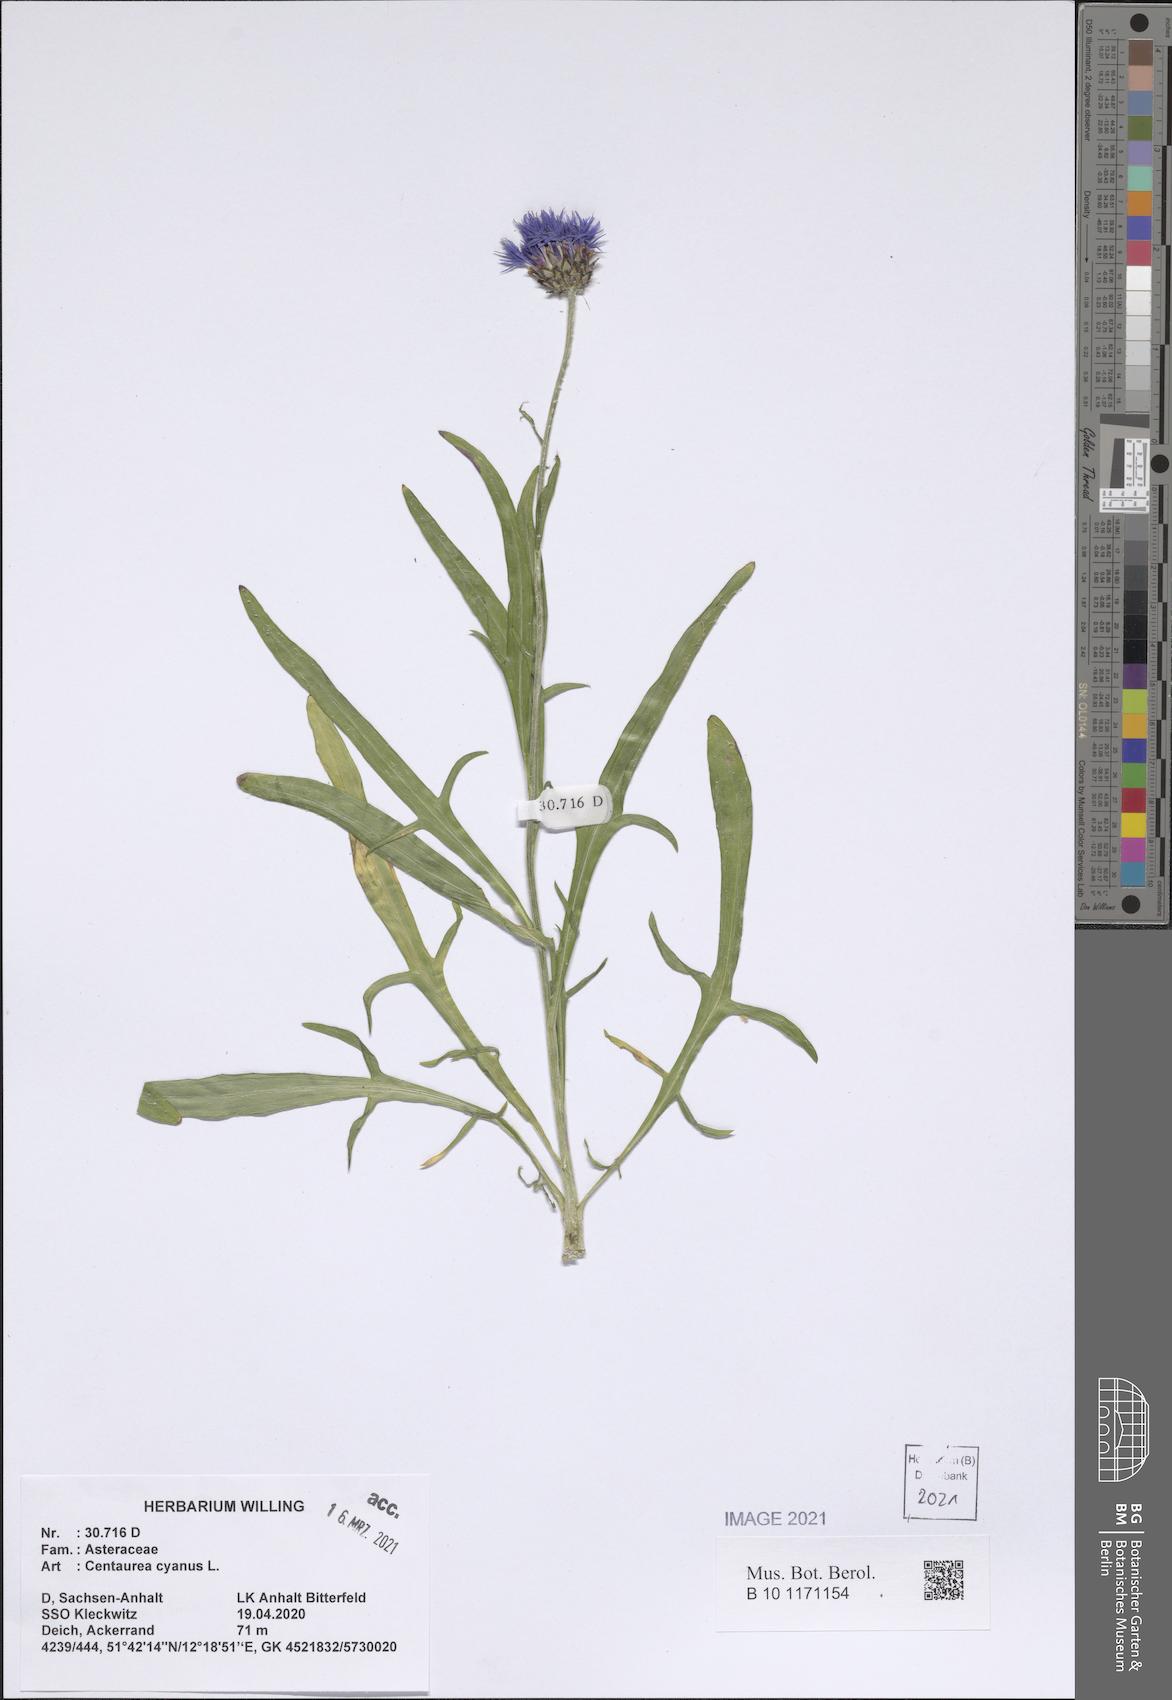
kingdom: Plantae
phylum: Tracheophyta
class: Magnoliopsida
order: Asterales
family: Asteraceae
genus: Centaurea
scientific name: Centaurea cyanus
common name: Cornflower
